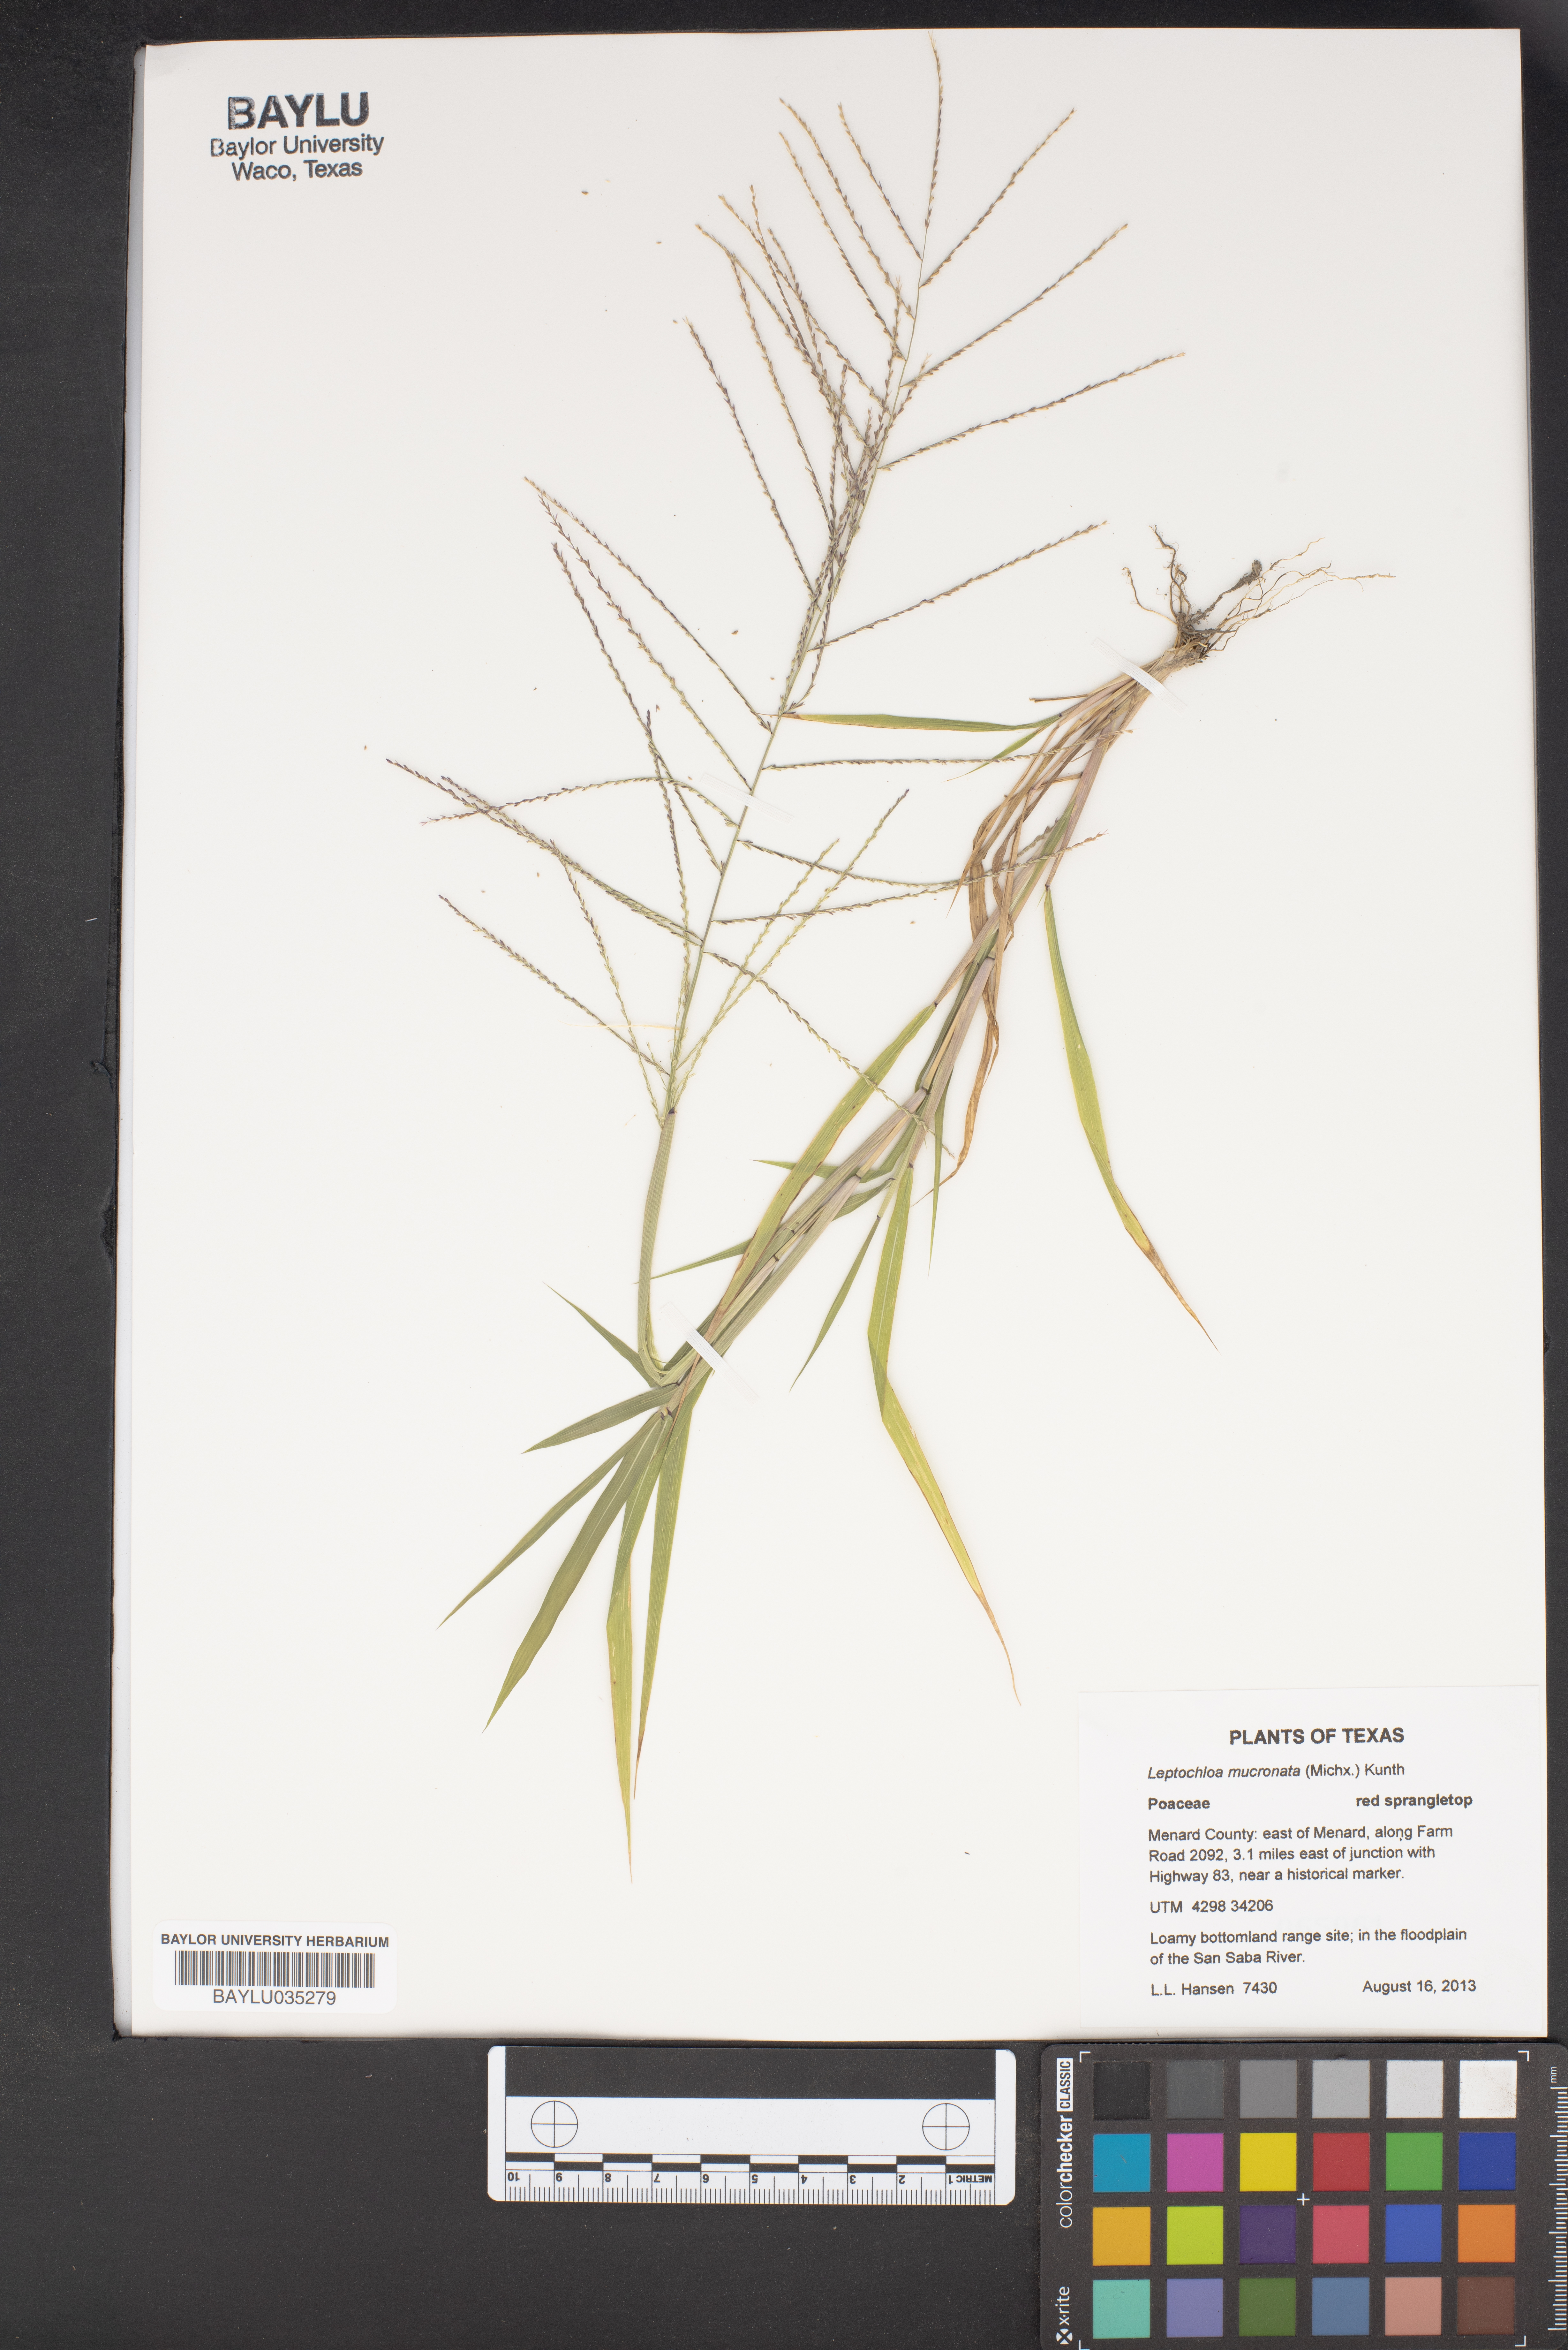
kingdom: Plantae
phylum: Tracheophyta
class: Liliopsida
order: Poales
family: Poaceae
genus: Leptochloa
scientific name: Leptochloa mucronata
